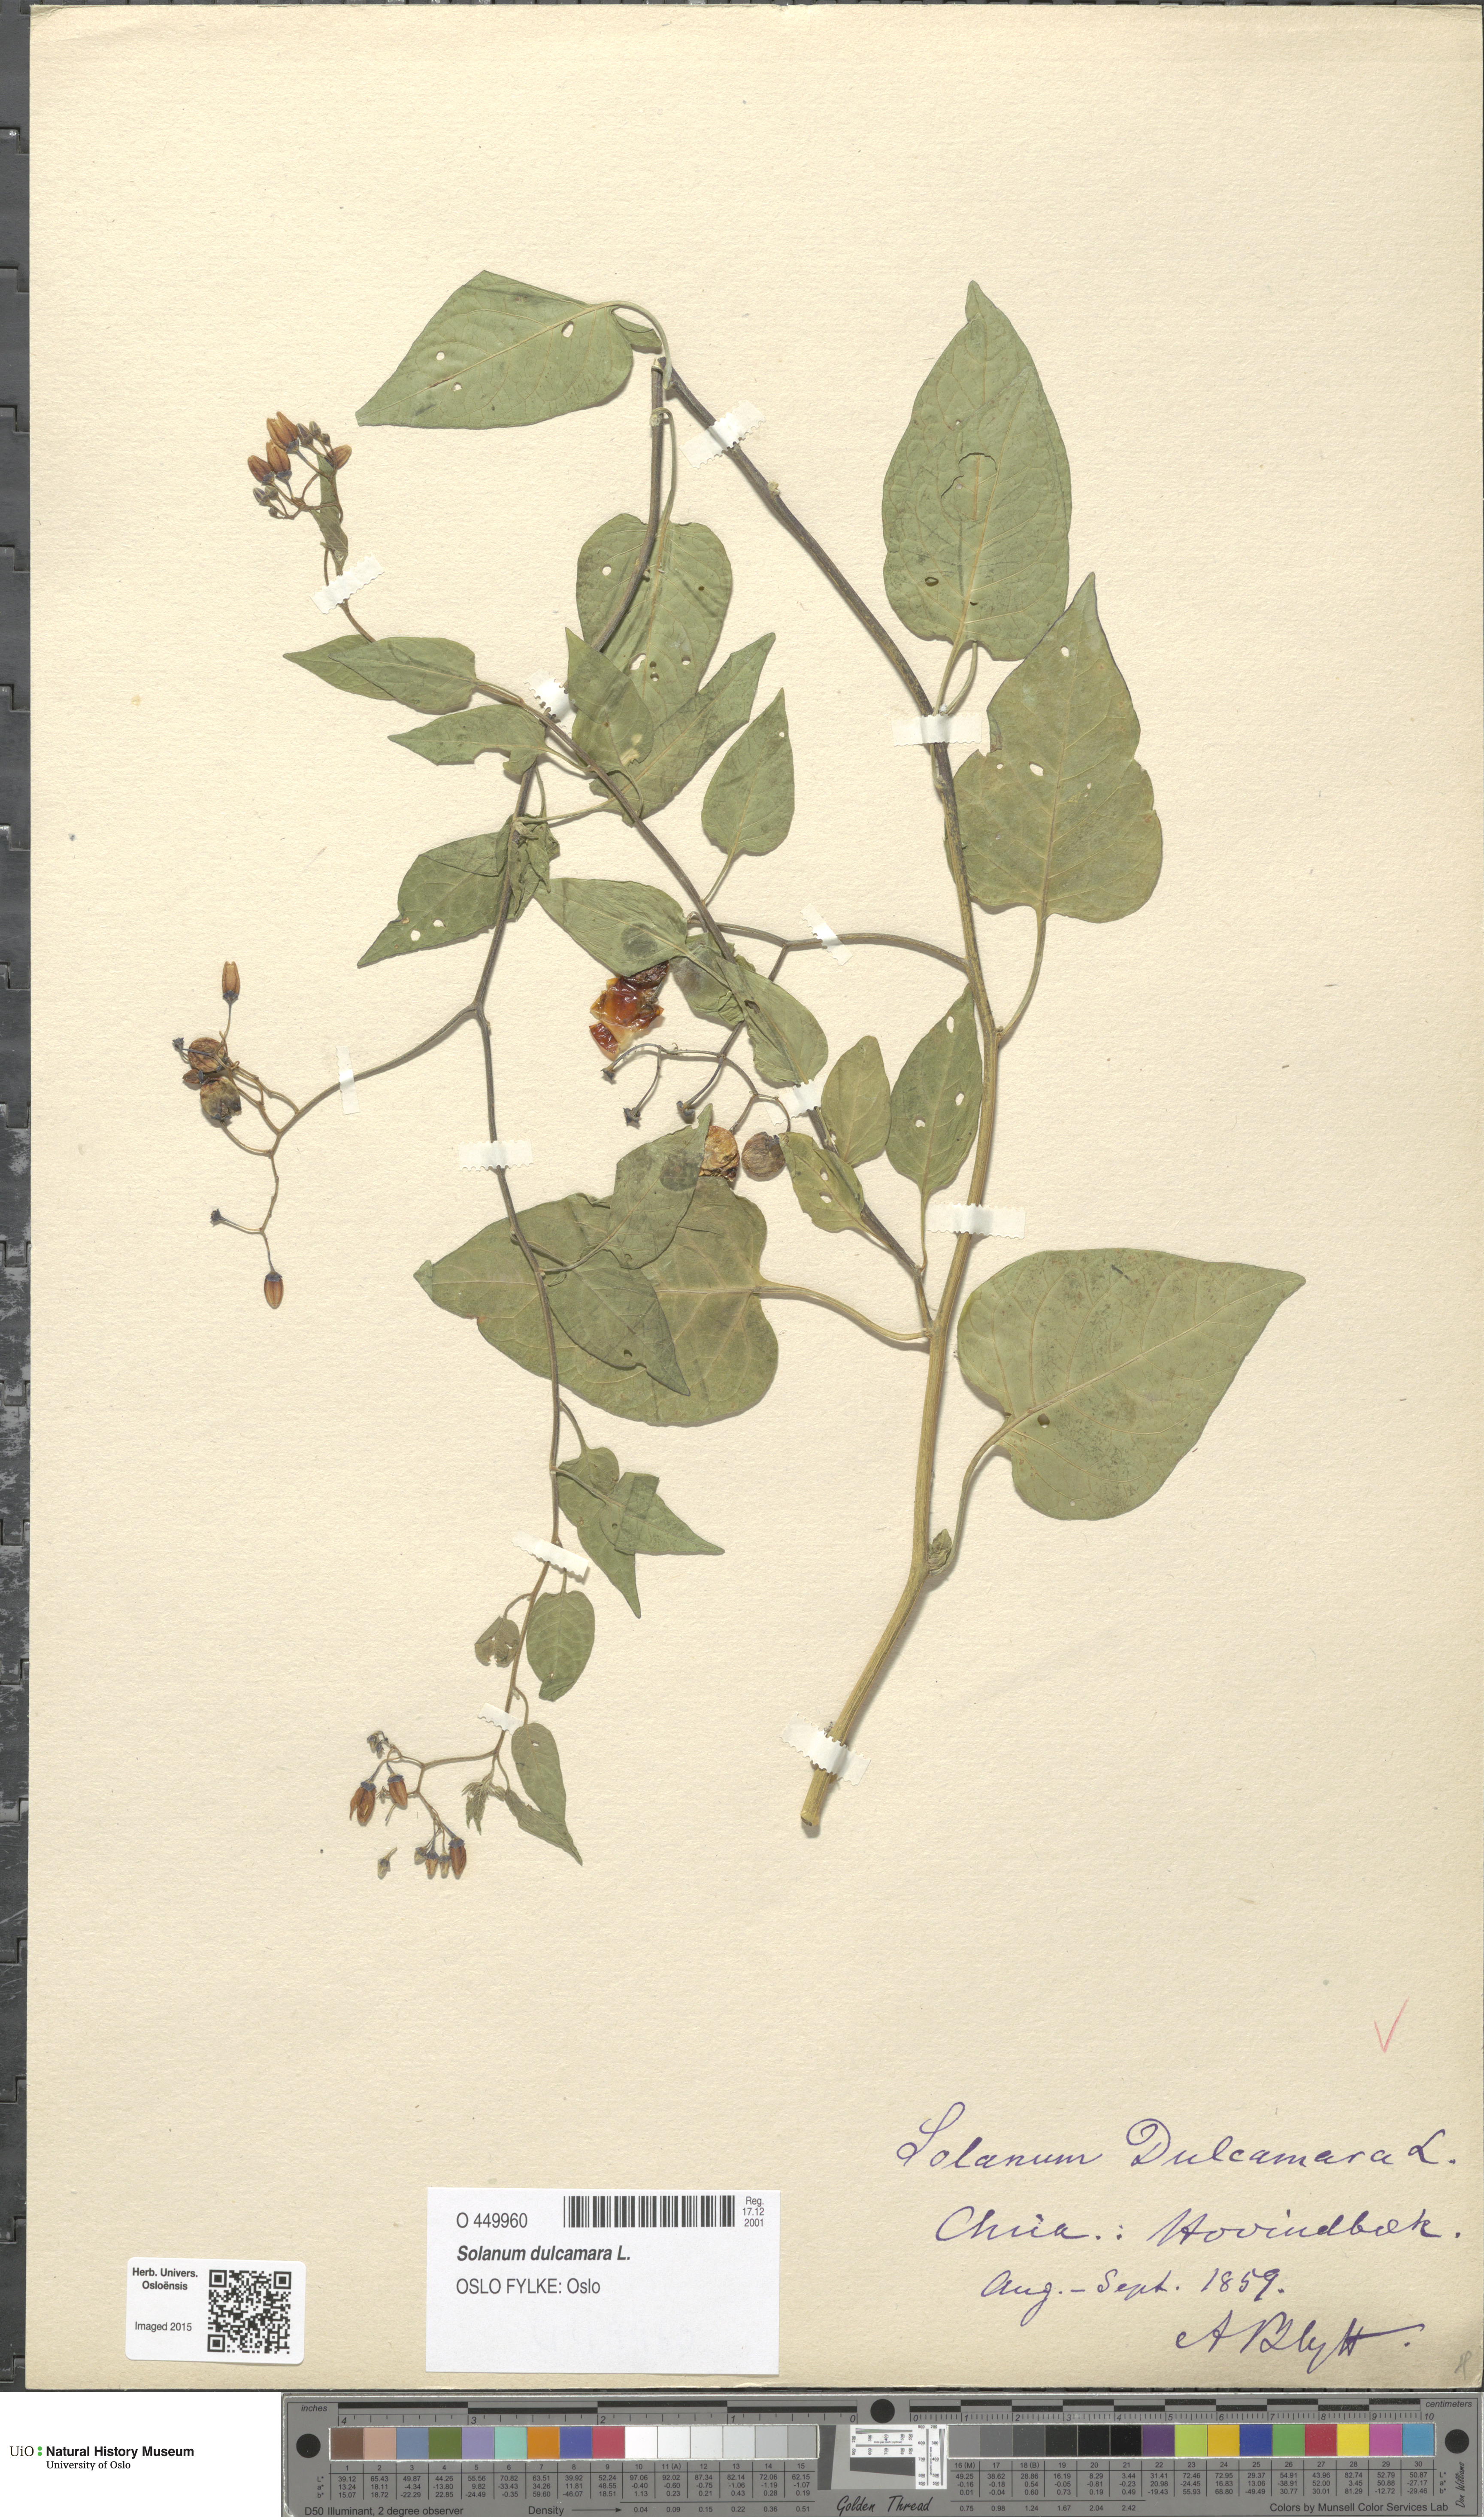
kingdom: Plantae
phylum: Tracheophyta
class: Magnoliopsida
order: Solanales
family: Solanaceae
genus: Solanum
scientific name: Solanum dulcamara
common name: Climbing nightshade
